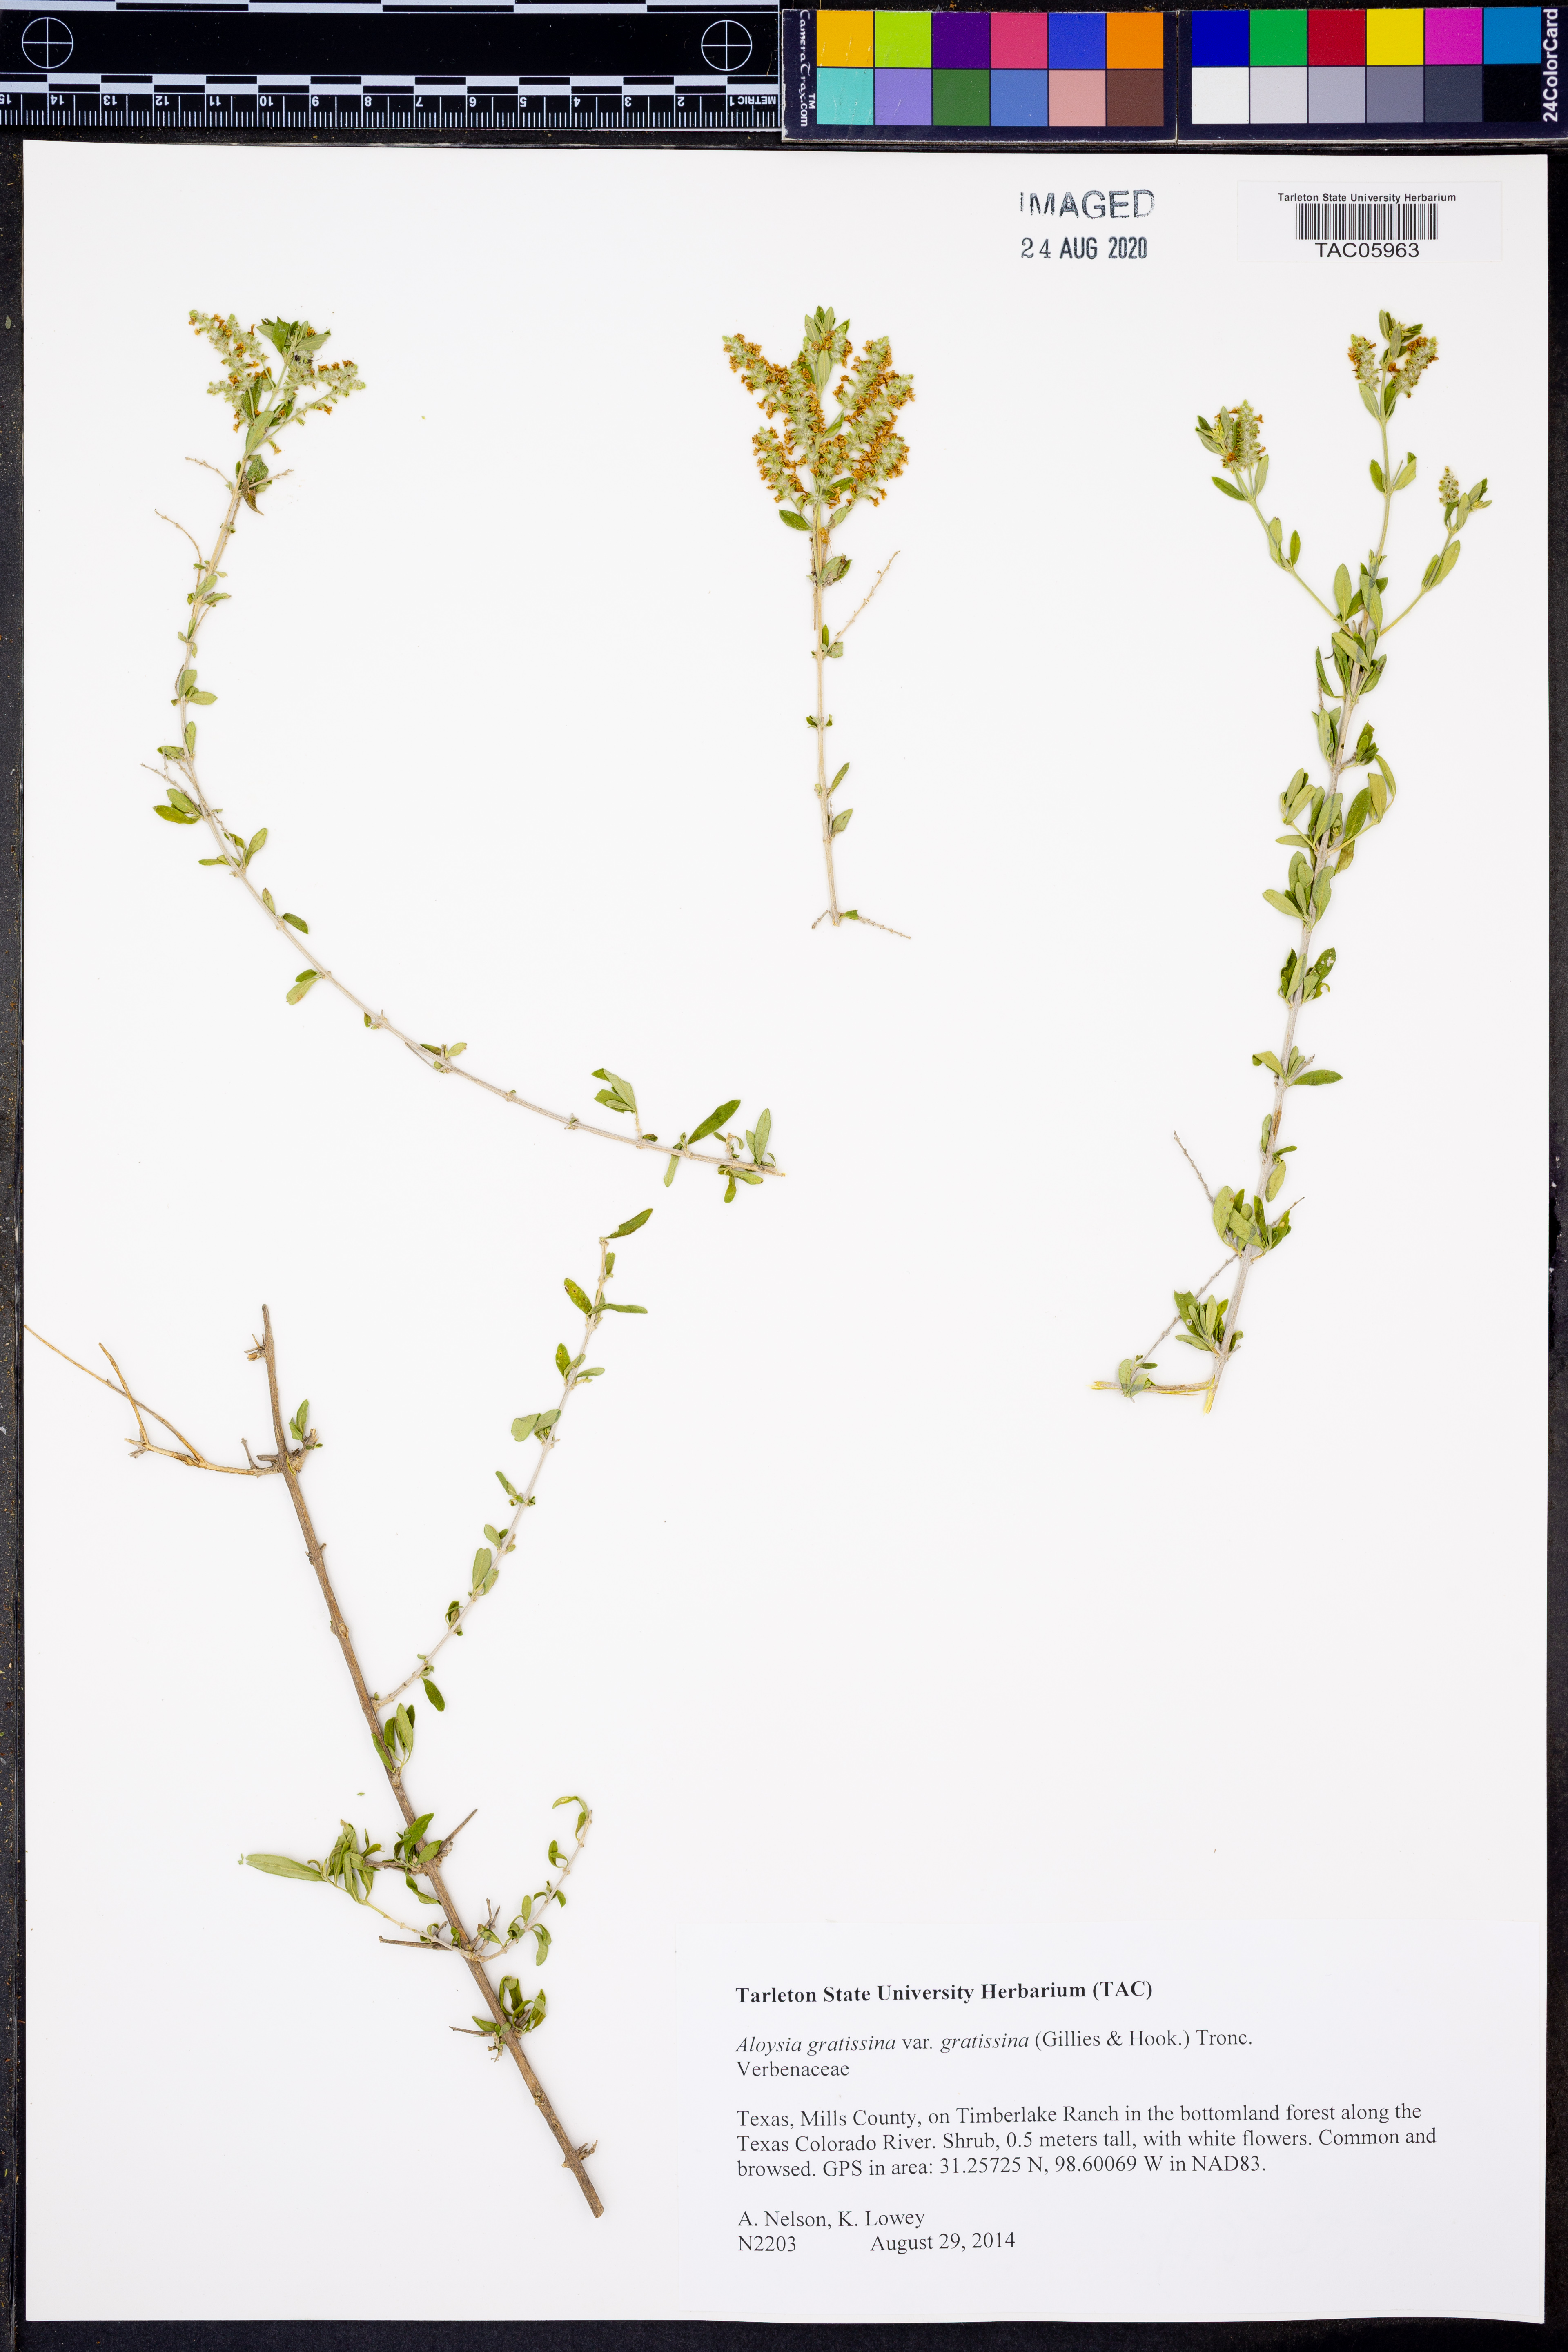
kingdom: Plantae
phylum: Tracheophyta
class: Magnoliopsida
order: Lamiales
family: Verbenaceae
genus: Aloysia
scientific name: Aloysia gratissima
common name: Common bee-brush
